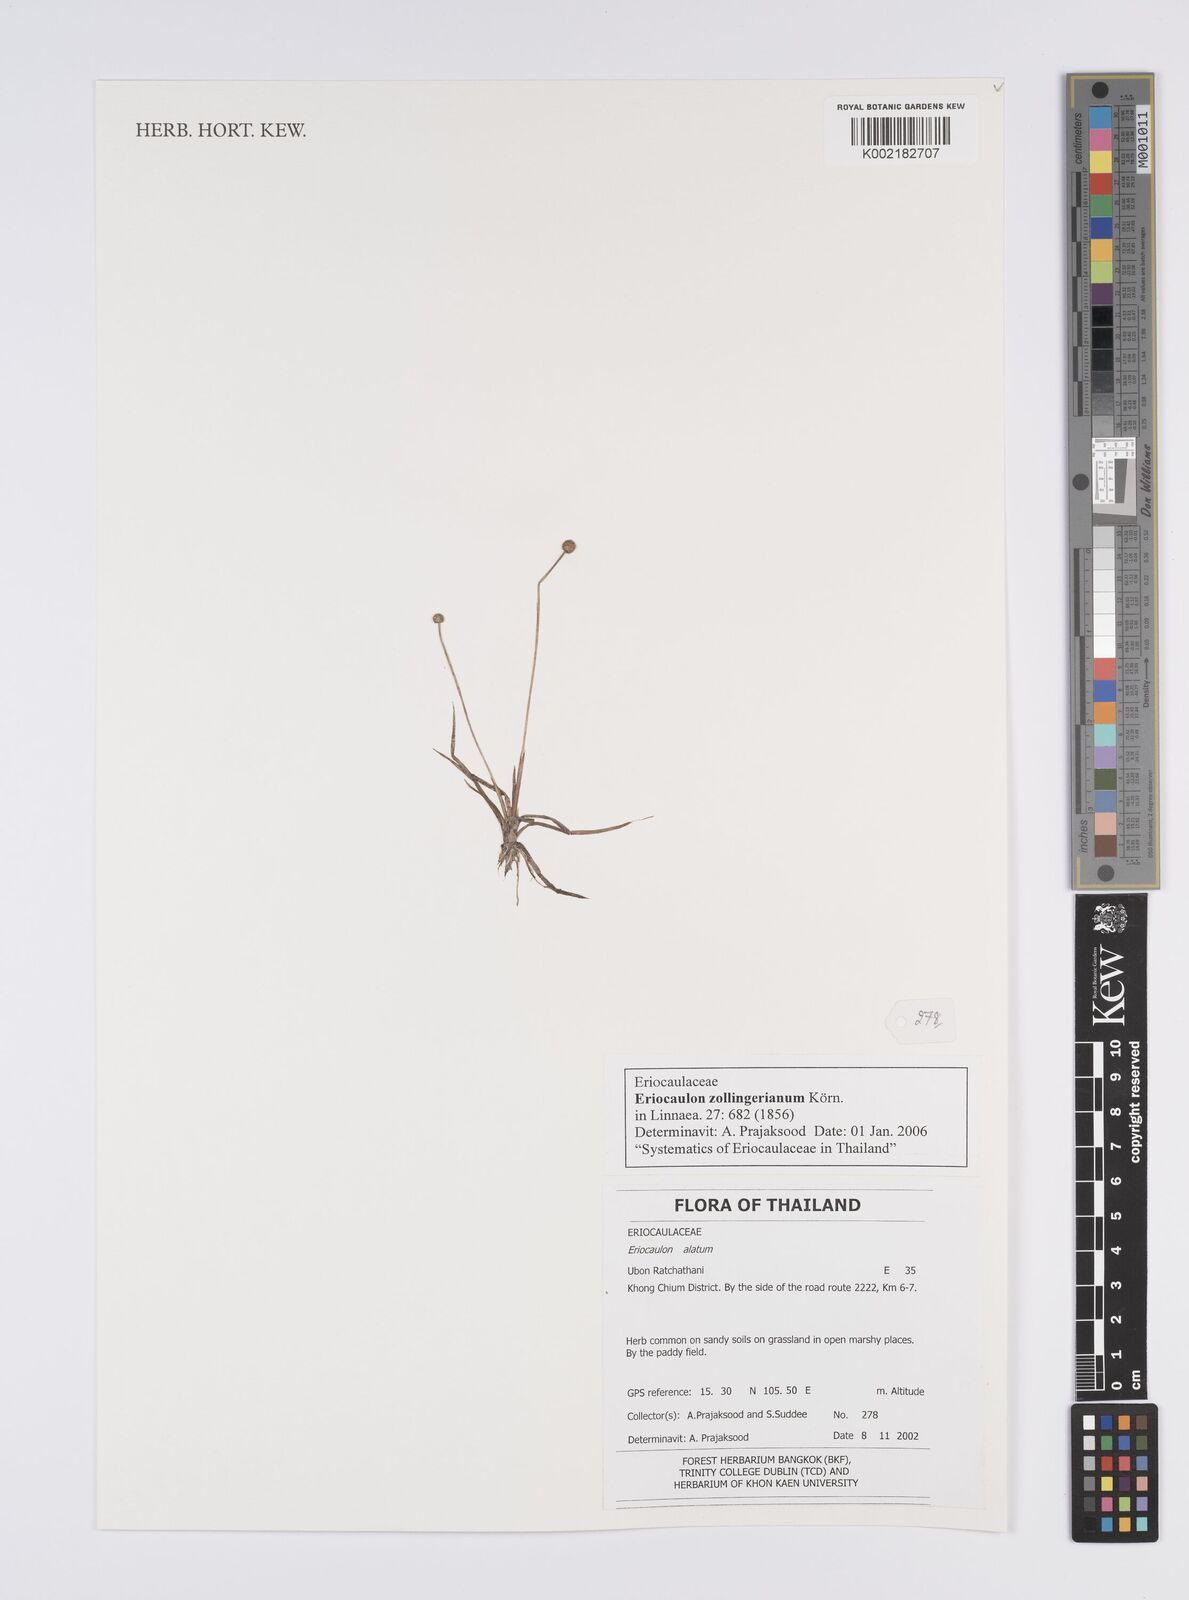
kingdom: Plantae
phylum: Tracheophyta
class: Liliopsida
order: Poales
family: Eriocaulaceae
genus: Eriocaulon
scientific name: Eriocaulon zollingerianum
